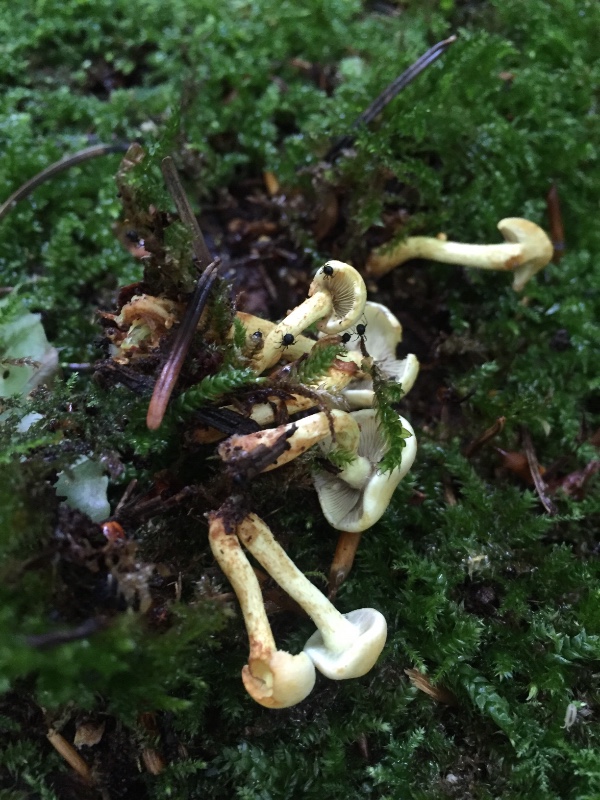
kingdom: Fungi
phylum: Basidiomycota
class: Agaricomycetes
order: Agaricales
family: Strophariaceae
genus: Hypholoma
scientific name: Hypholoma fasciculare
